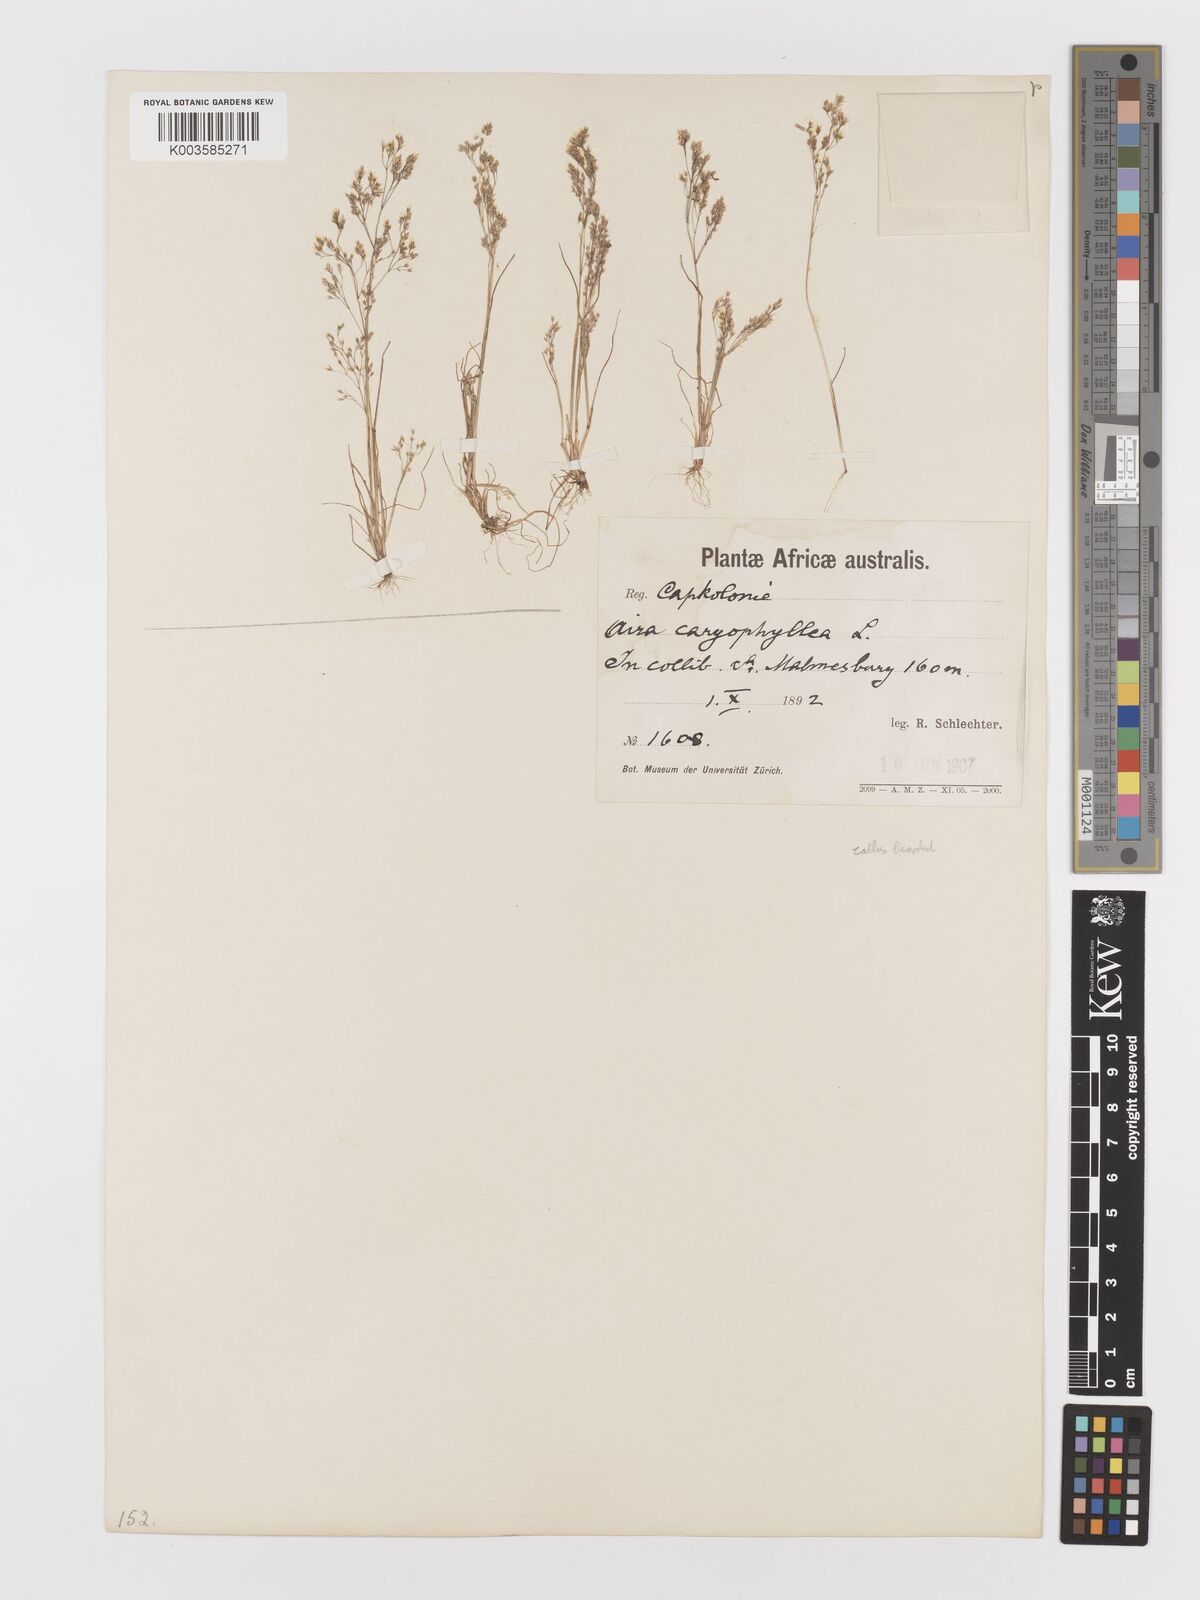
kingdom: Plantae
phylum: Tracheophyta
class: Liliopsida
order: Poales
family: Poaceae
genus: Aira
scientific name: Aira cupaniana
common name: Silver hairgrass
